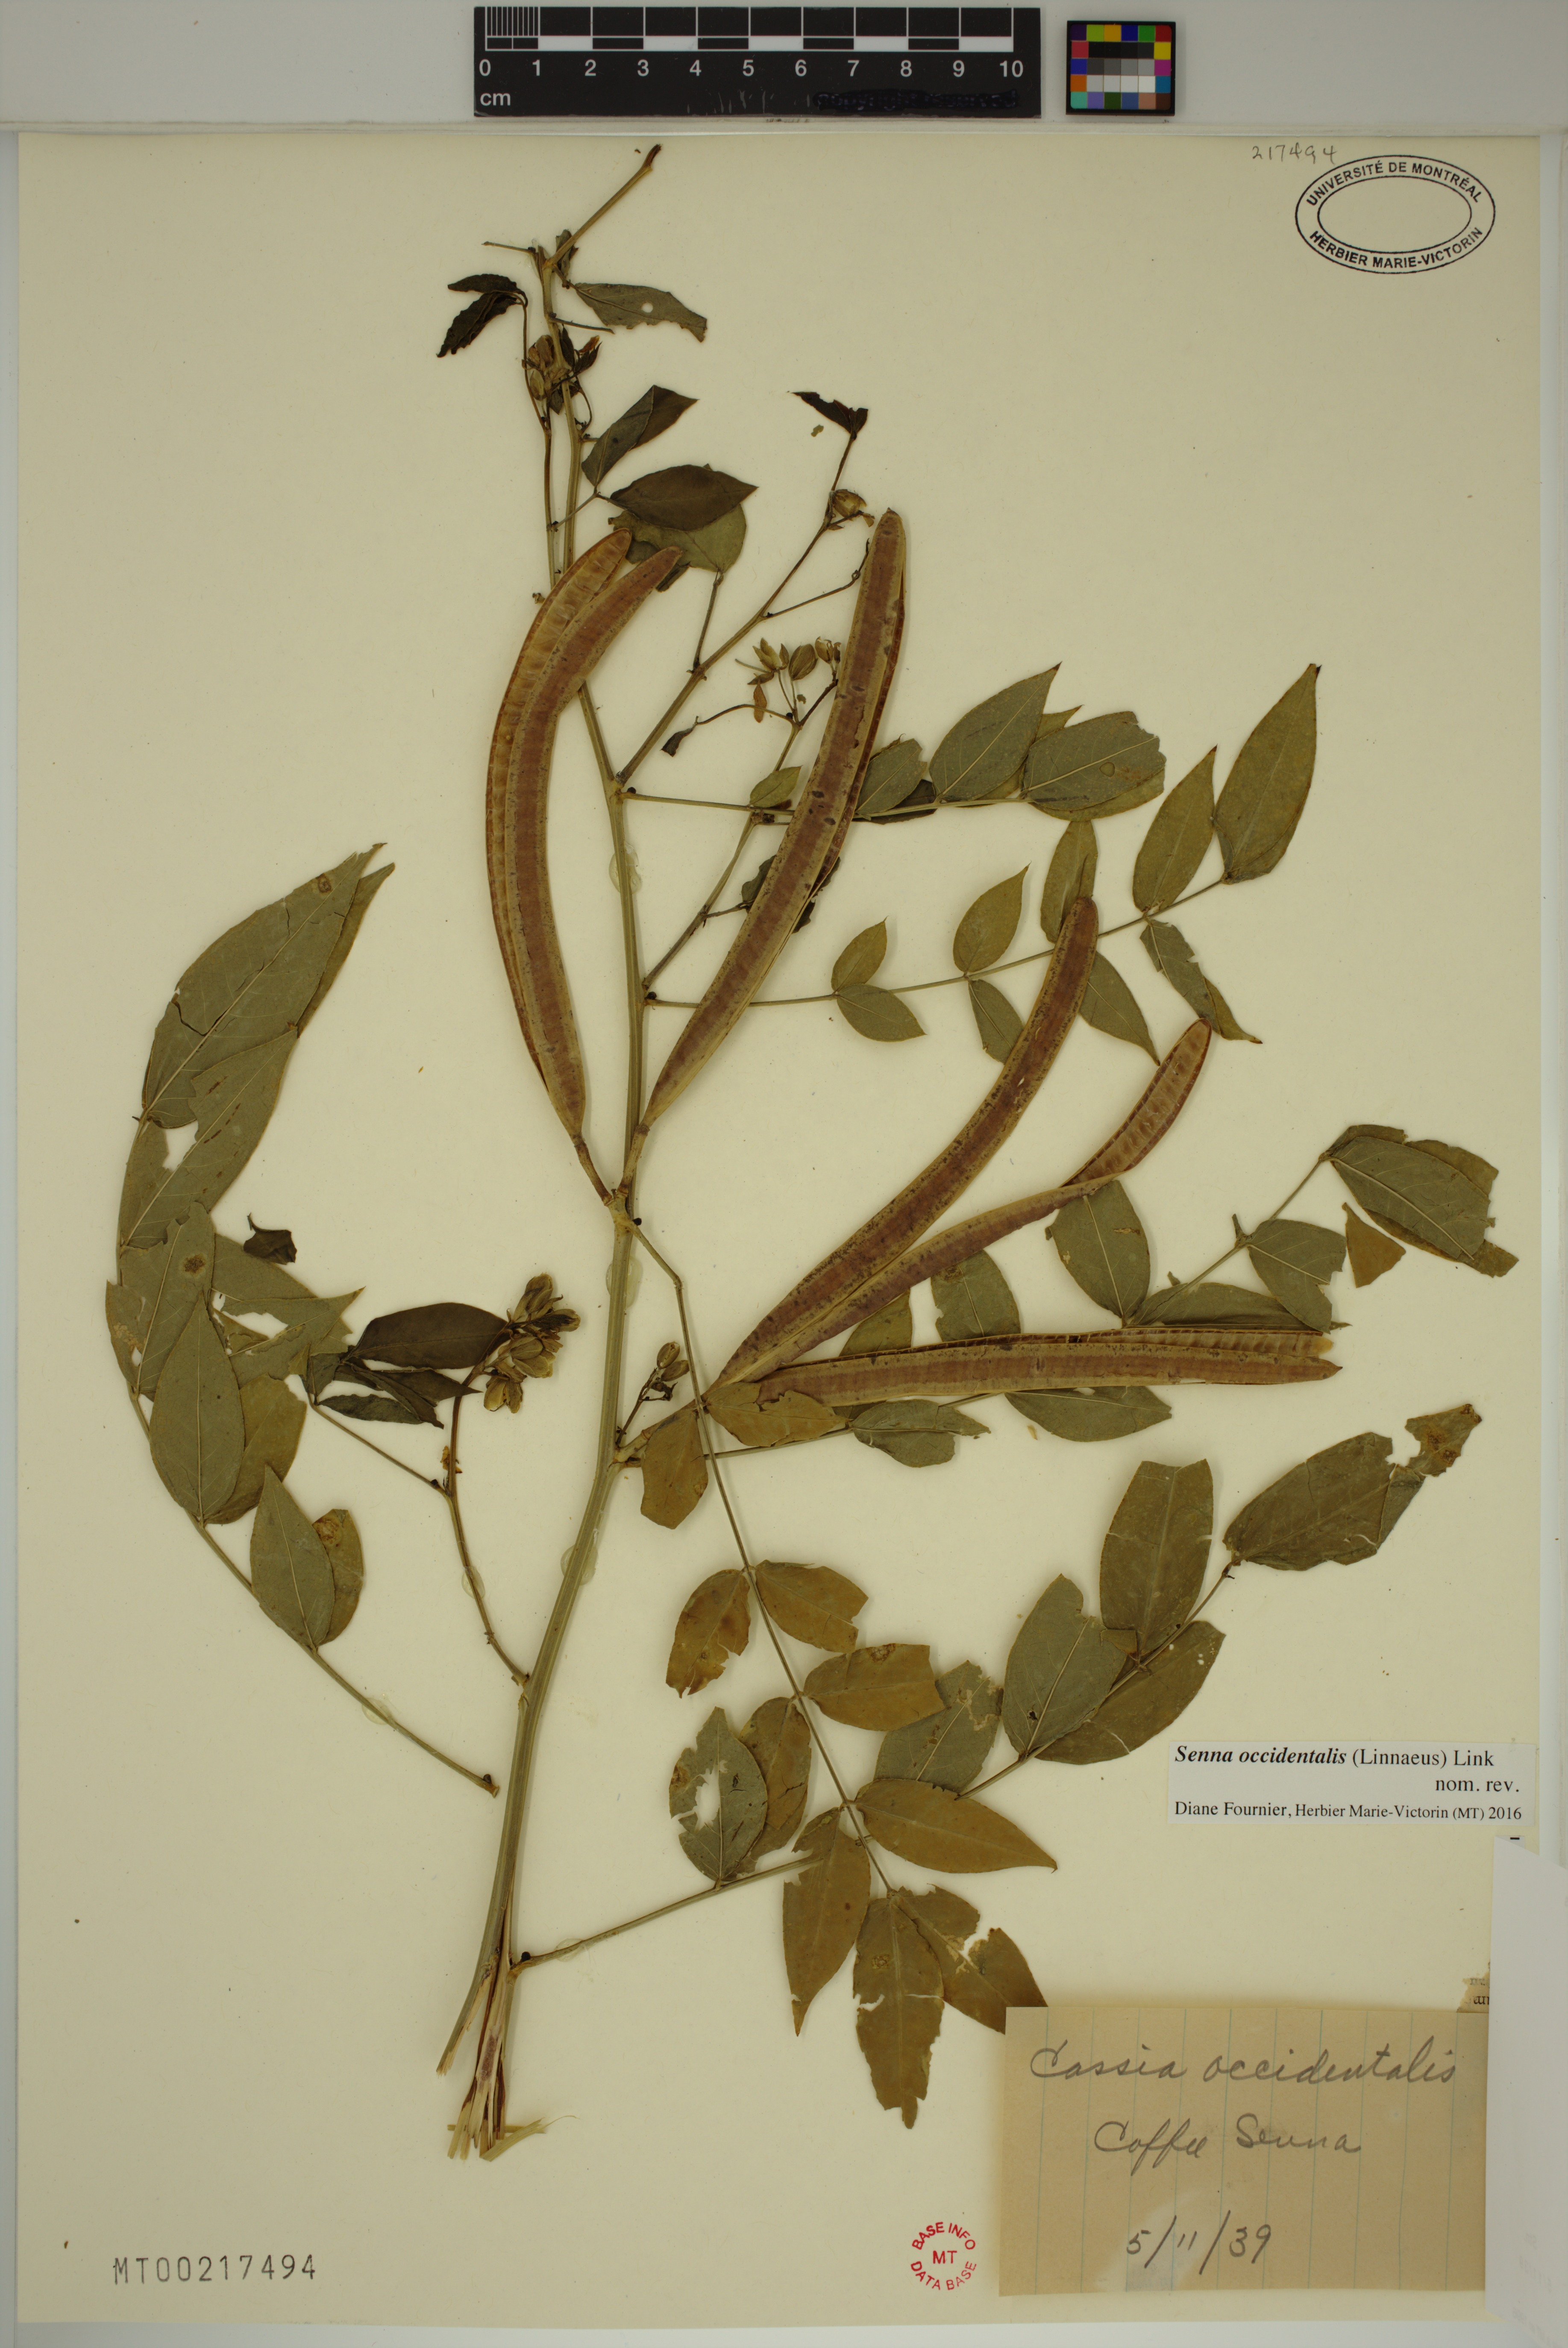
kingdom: Plantae
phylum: Tracheophyta
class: Magnoliopsida
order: Fabales
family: Fabaceae
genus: Senna
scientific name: Senna occidentalis
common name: Septicweed
